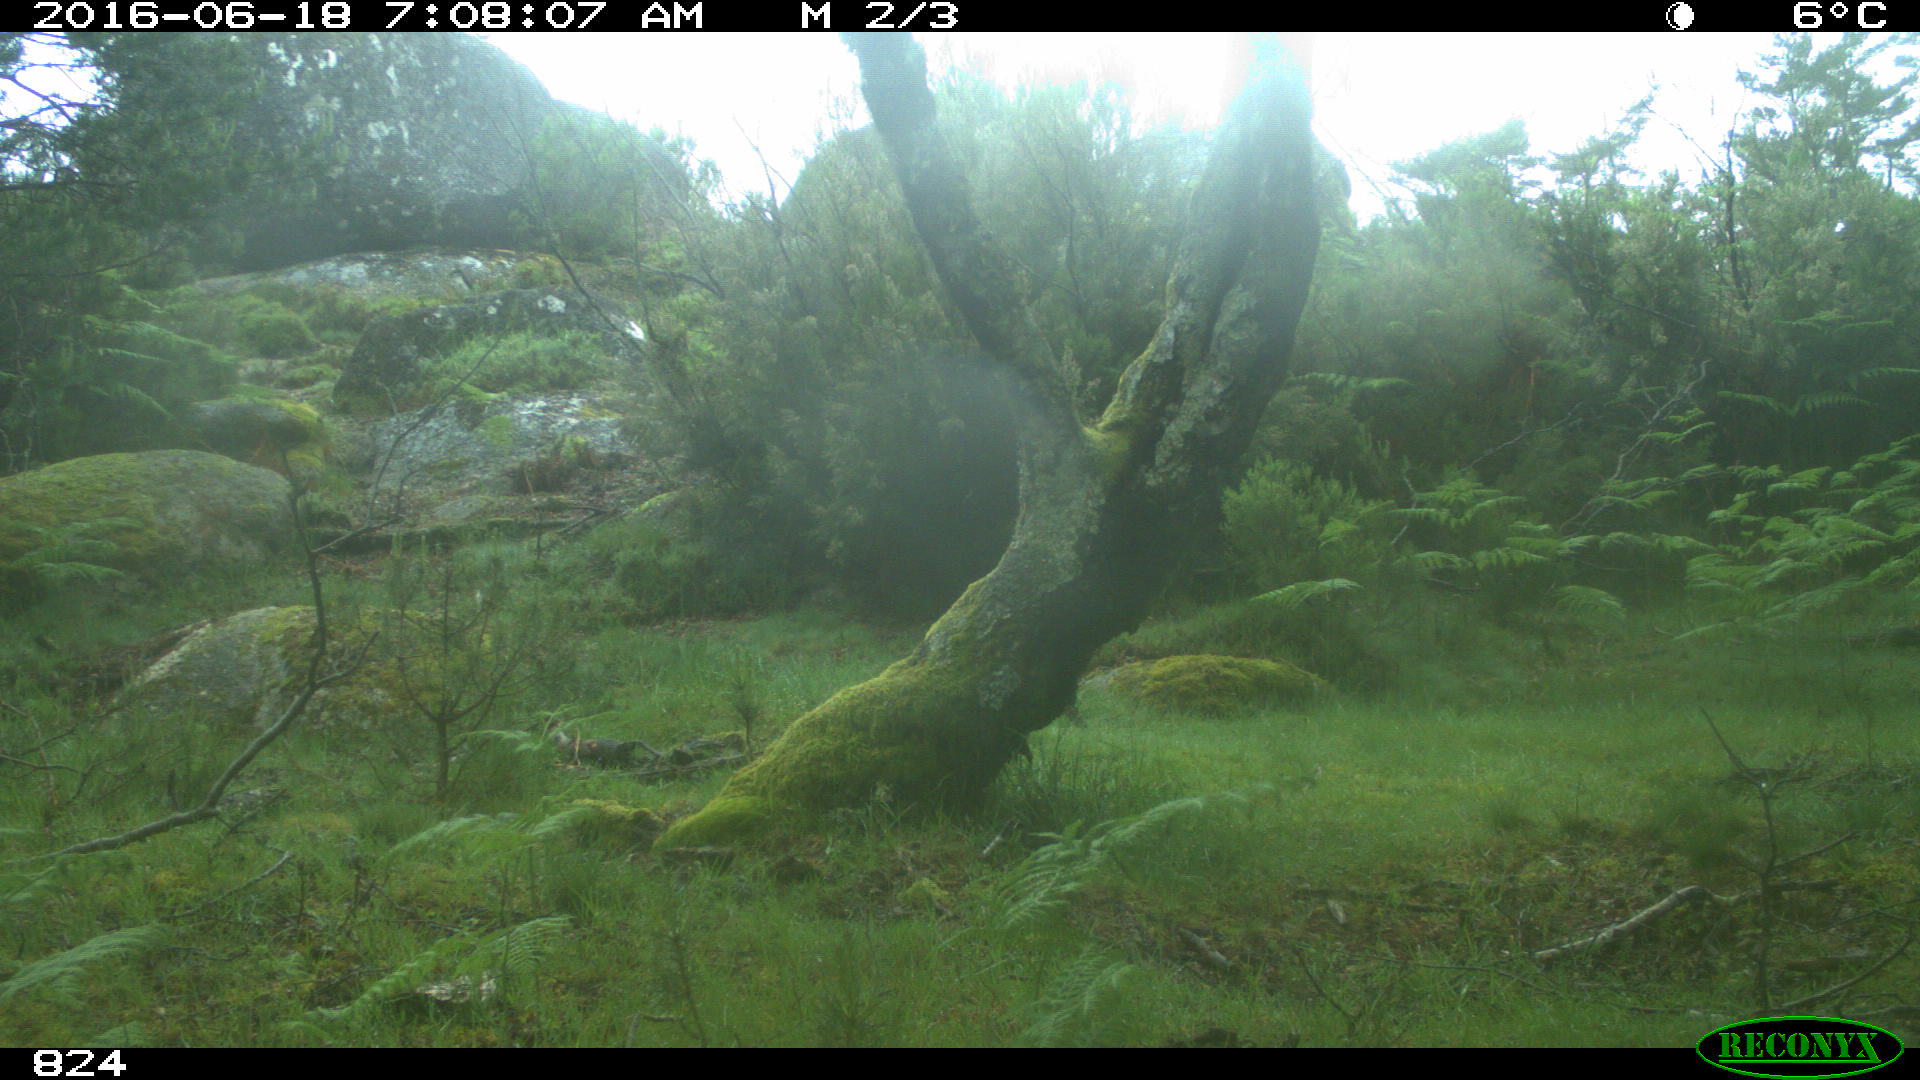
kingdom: Animalia
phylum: Chordata
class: Mammalia
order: Carnivora
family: Canidae
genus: Canis
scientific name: Canis lupus
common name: Gray wolf
